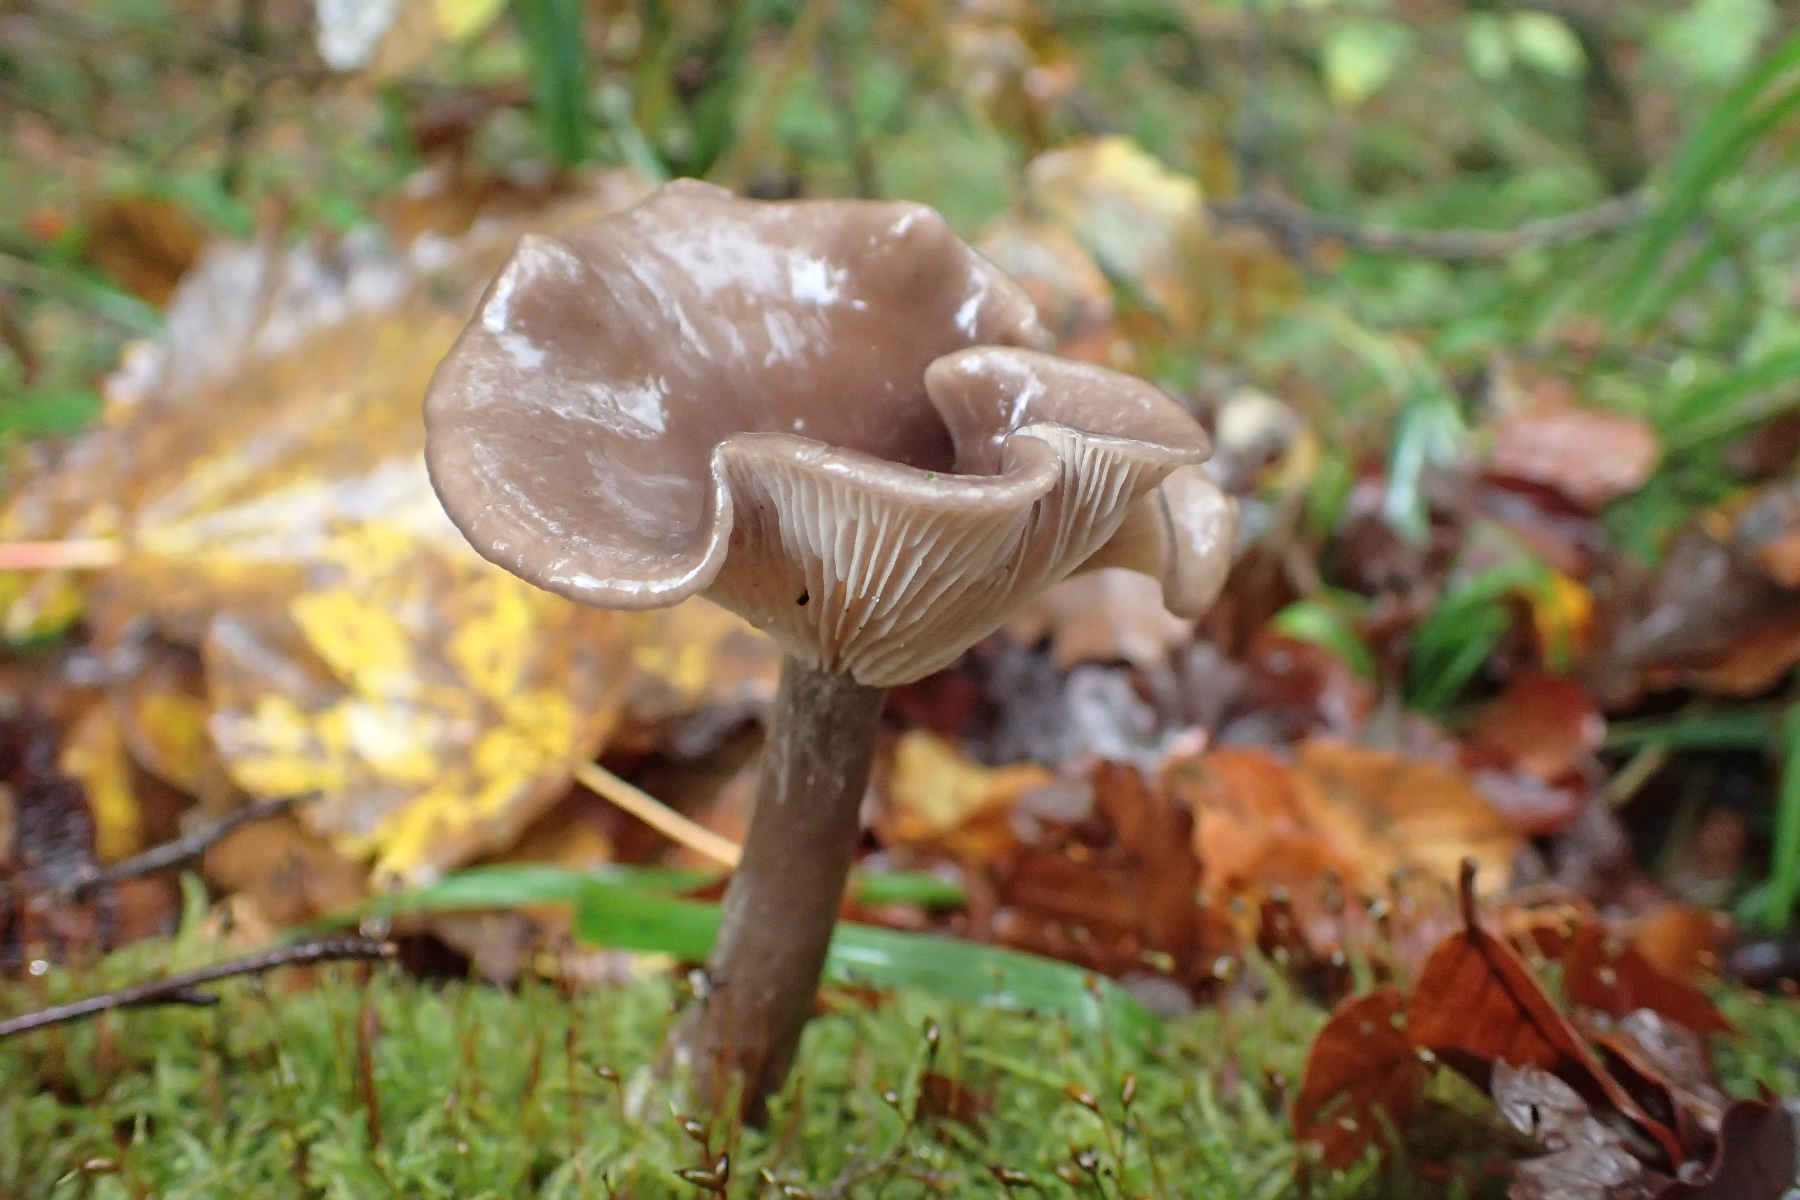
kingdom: Fungi
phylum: Basidiomycota
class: Agaricomycetes
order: Agaricales
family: Pseudoclitocybaceae
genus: Pseudoclitocybe
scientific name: Pseudoclitocybe cyathiformis
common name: almindelig bægertragthat
